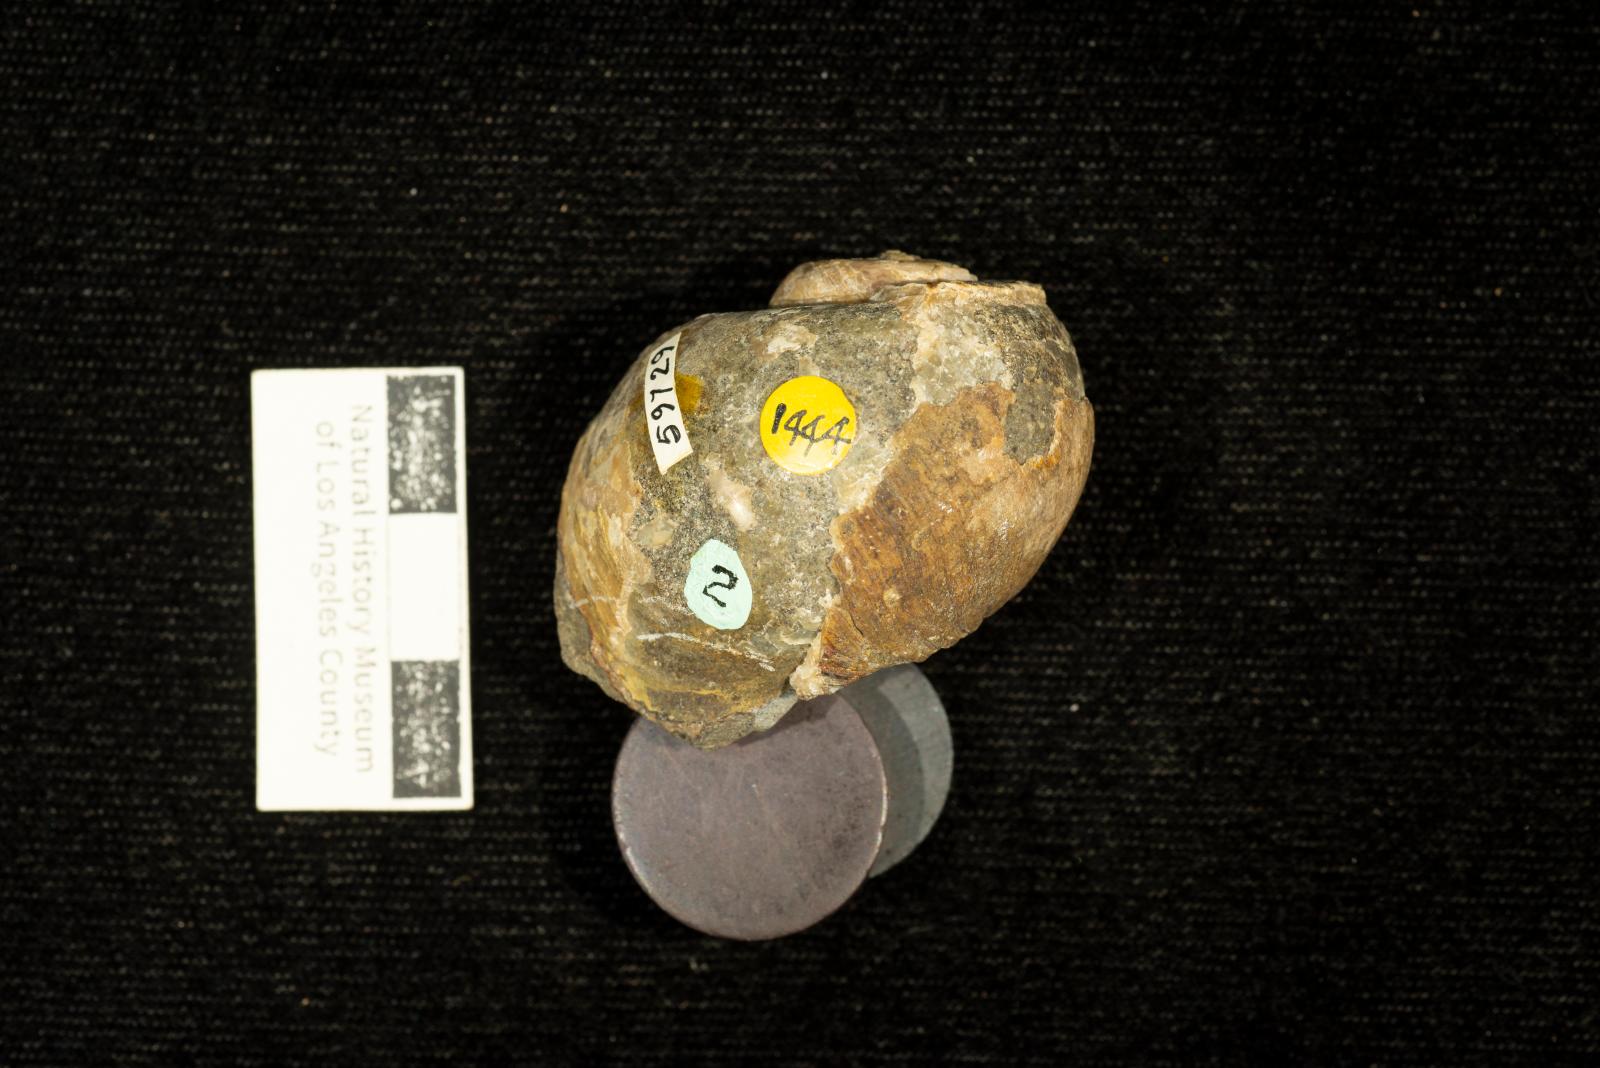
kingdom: Animalia
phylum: Mollusca
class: Gastropoda
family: Gyrodidae
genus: Gyrodes
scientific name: Gyrodes dowelli
